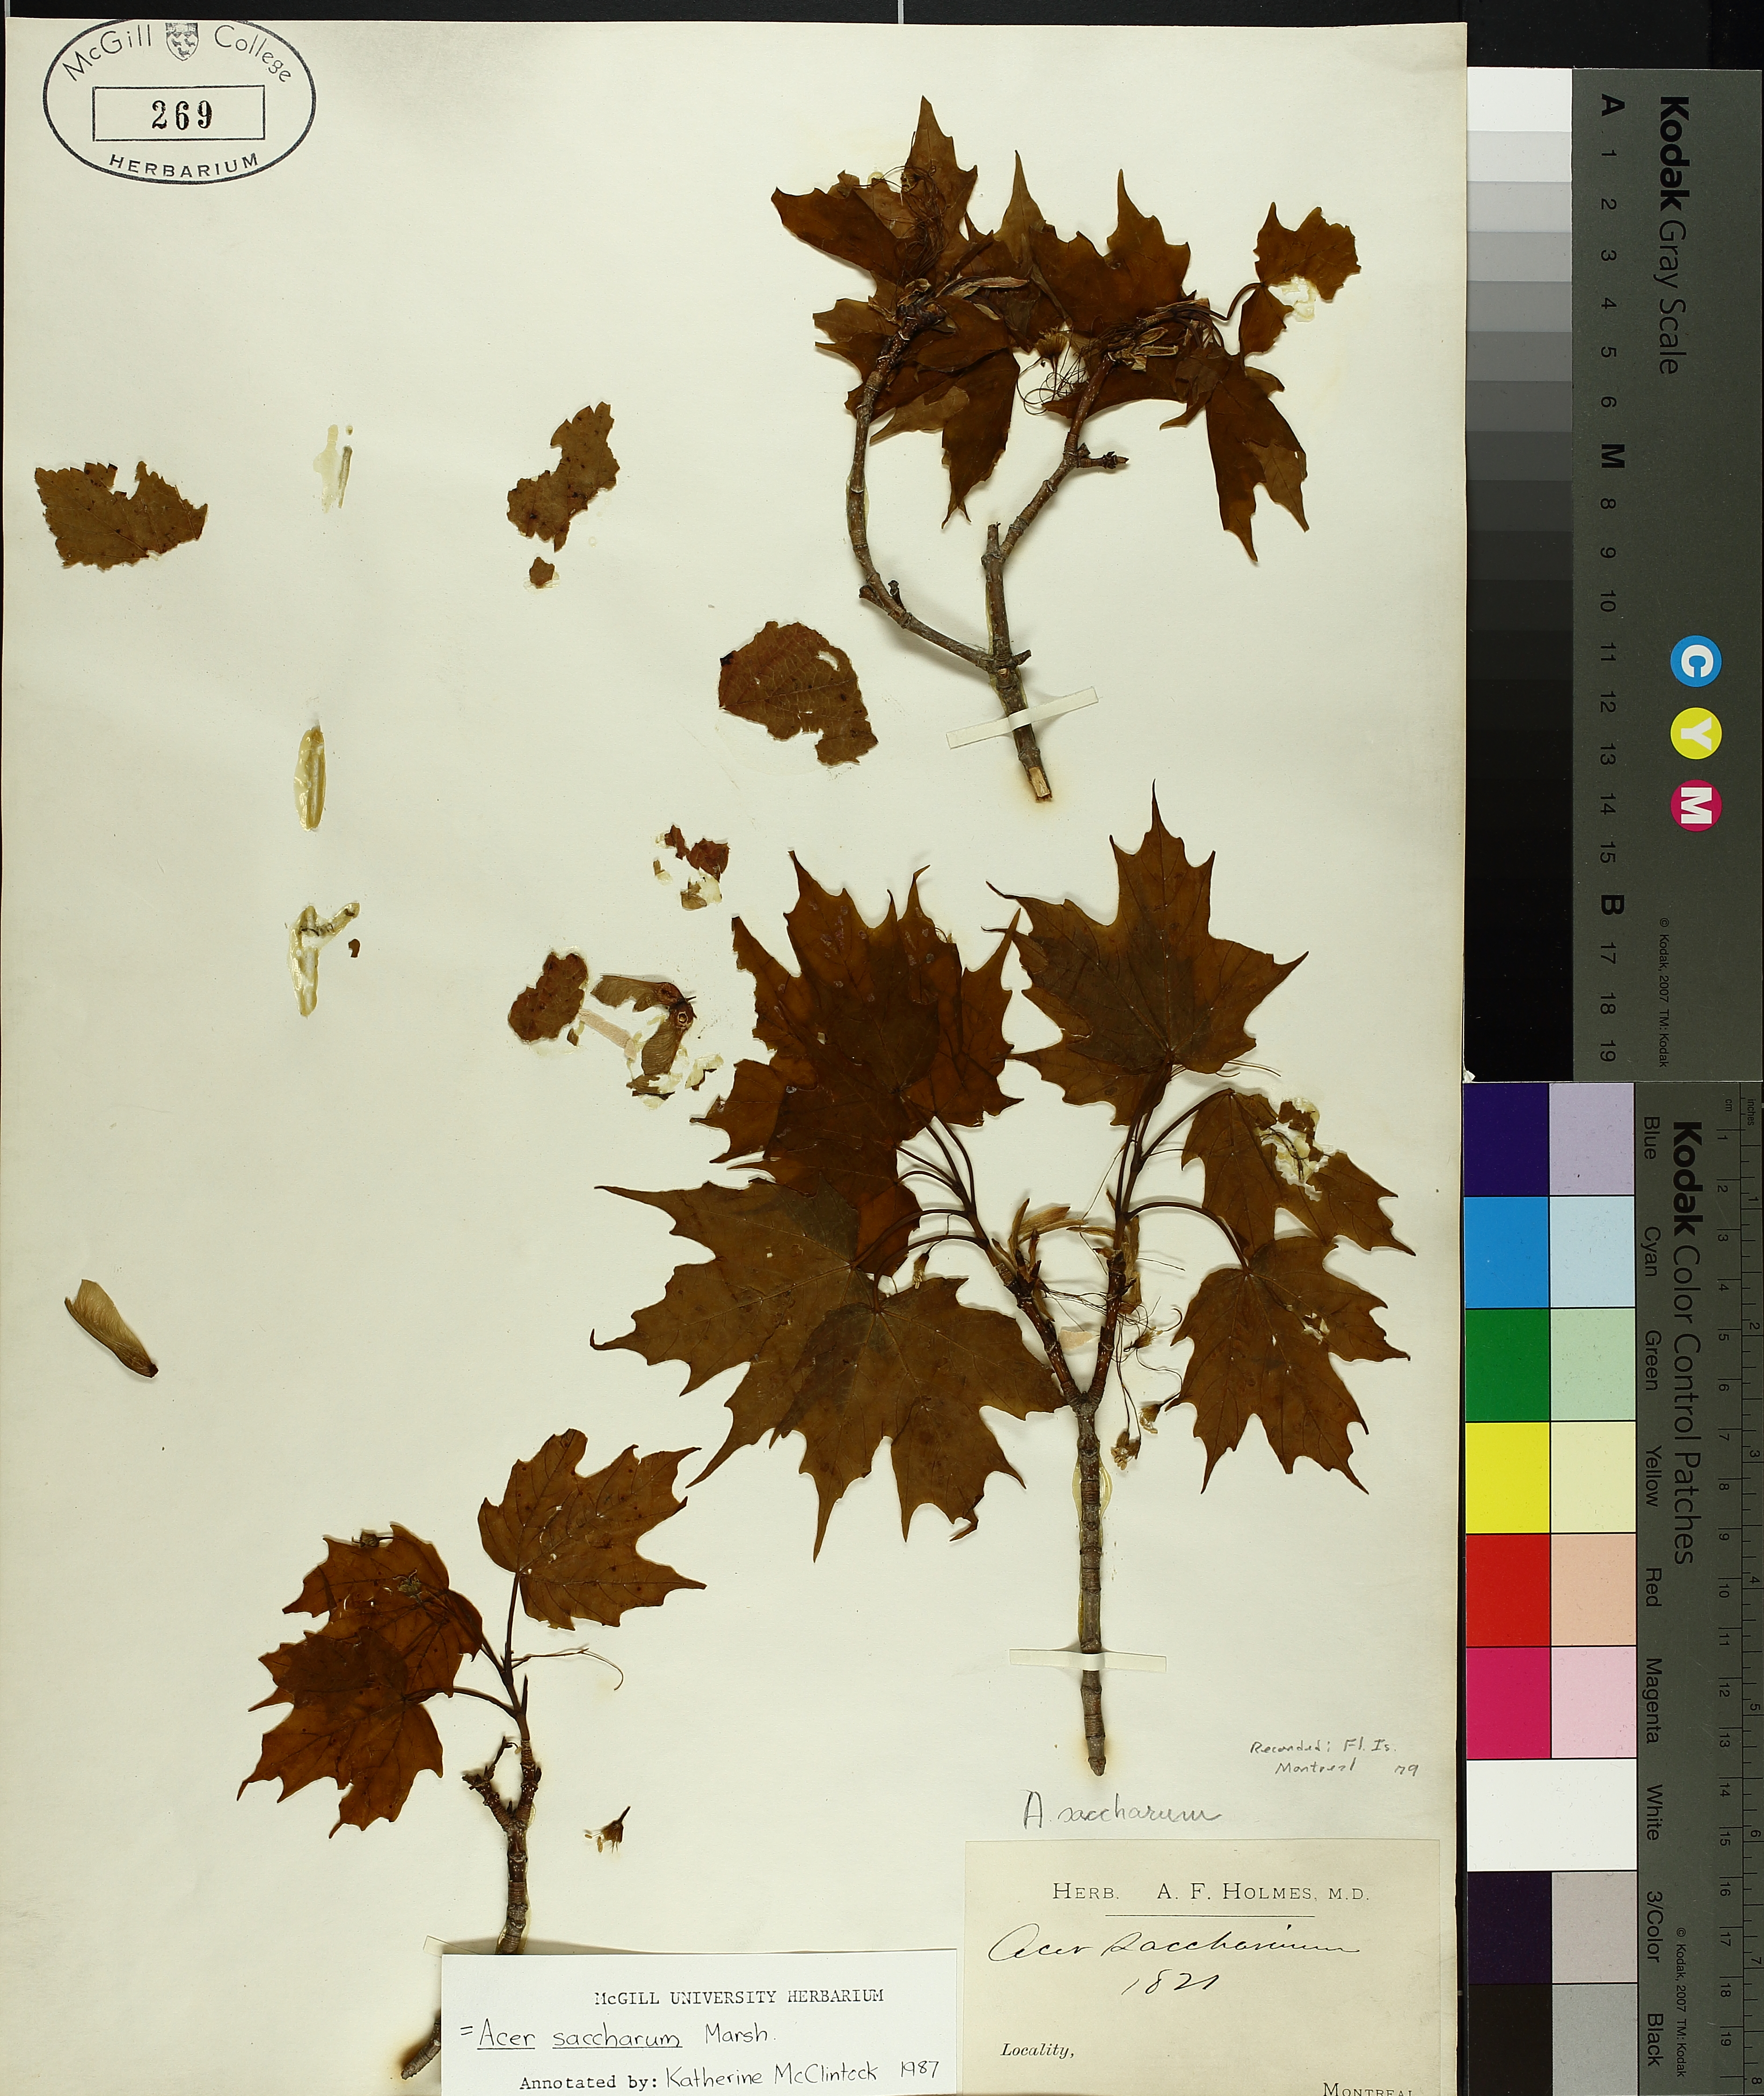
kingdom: Plantae
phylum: Tracheophyta
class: Magnoliopsida
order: Sapindales
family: Sapindaceae
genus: Acer
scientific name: Acer saccharum
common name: Sugar maple
